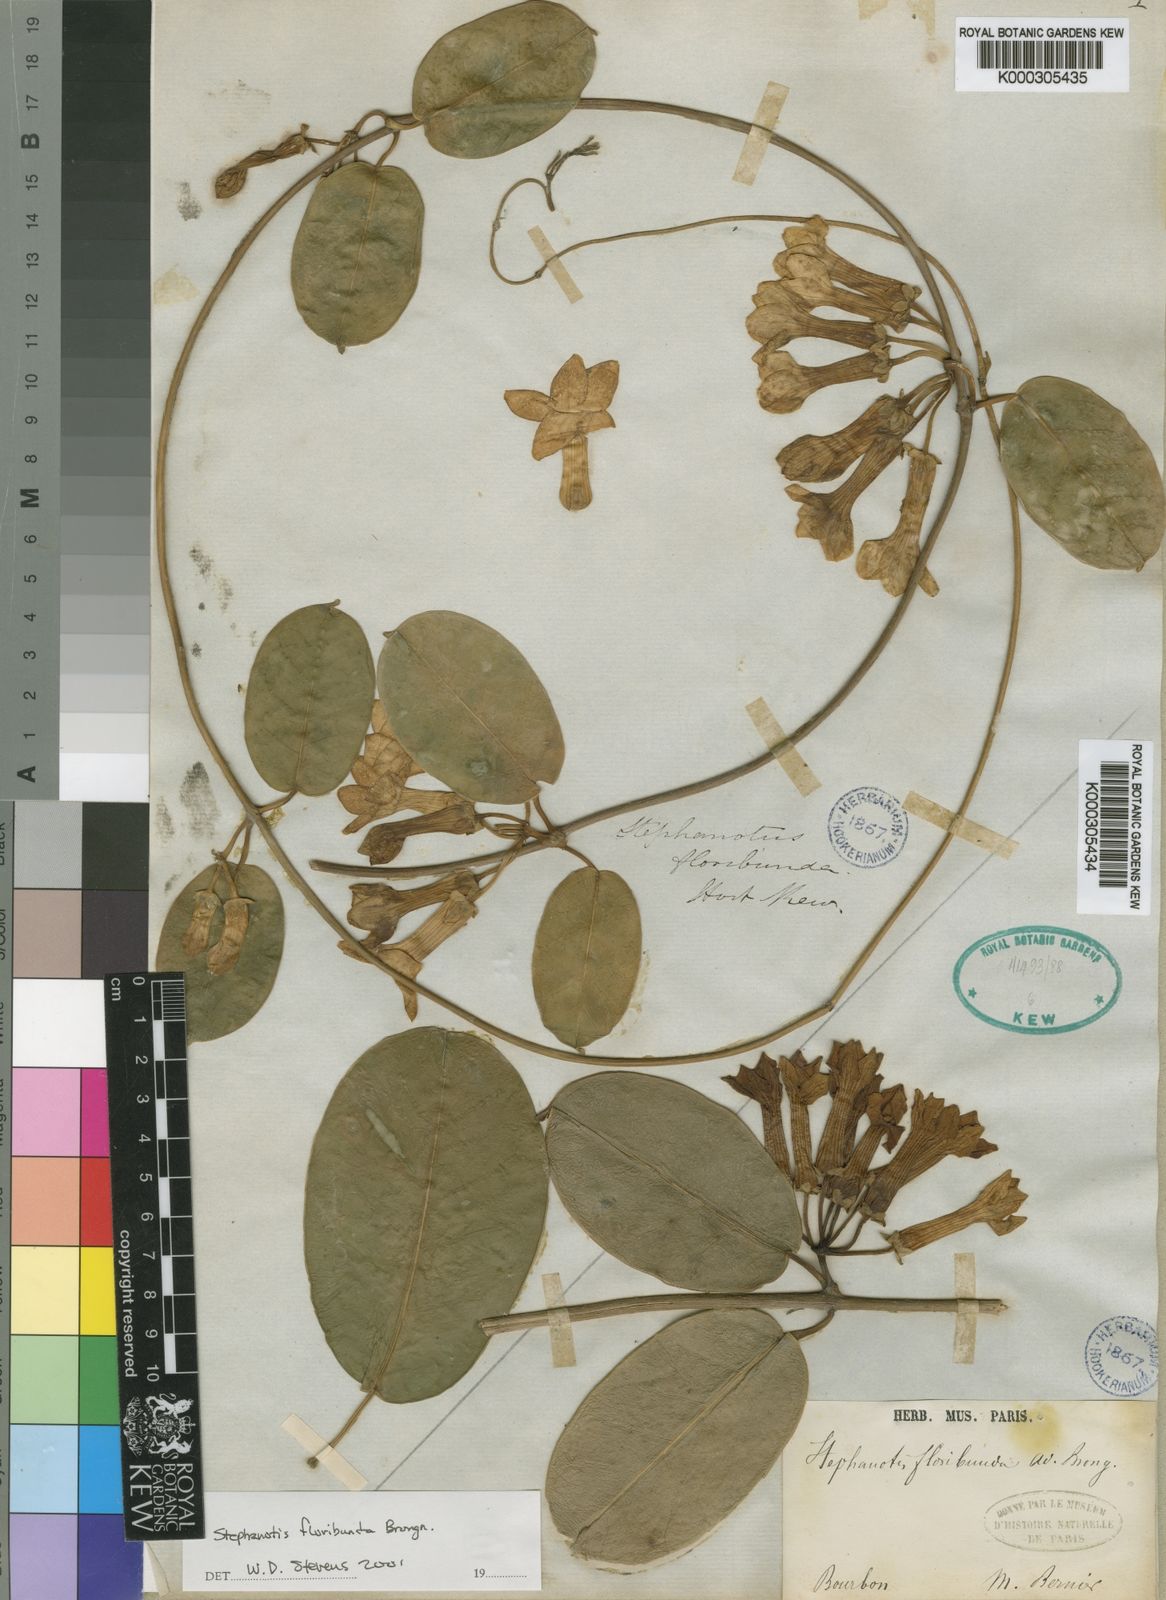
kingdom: Plantae
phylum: Tracheophyta
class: Magnoliopsida
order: Gentianales
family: Apocynaceae
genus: Stephanotis
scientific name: Stephanotis
